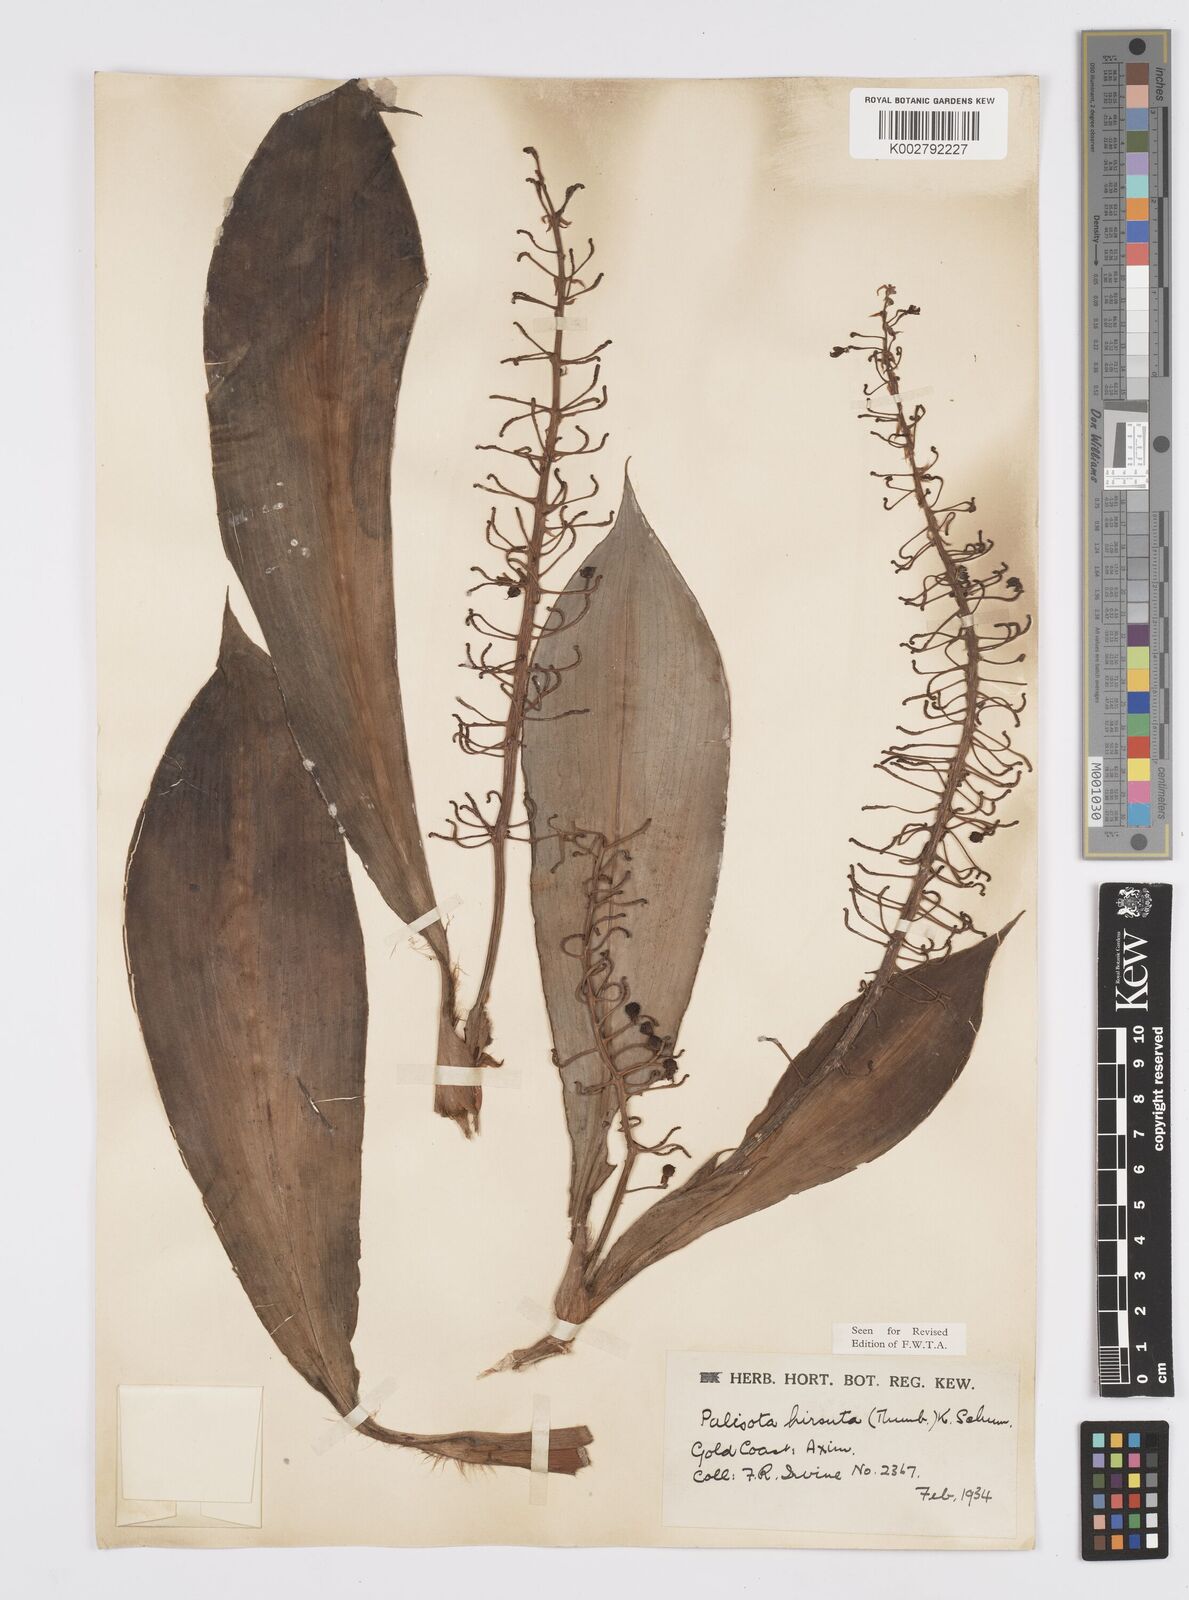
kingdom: Plantae
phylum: Tracheophyta
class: Liliopsida
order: Commelinales
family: Commelinaceae
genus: Palisota
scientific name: Palisota hirsuta
